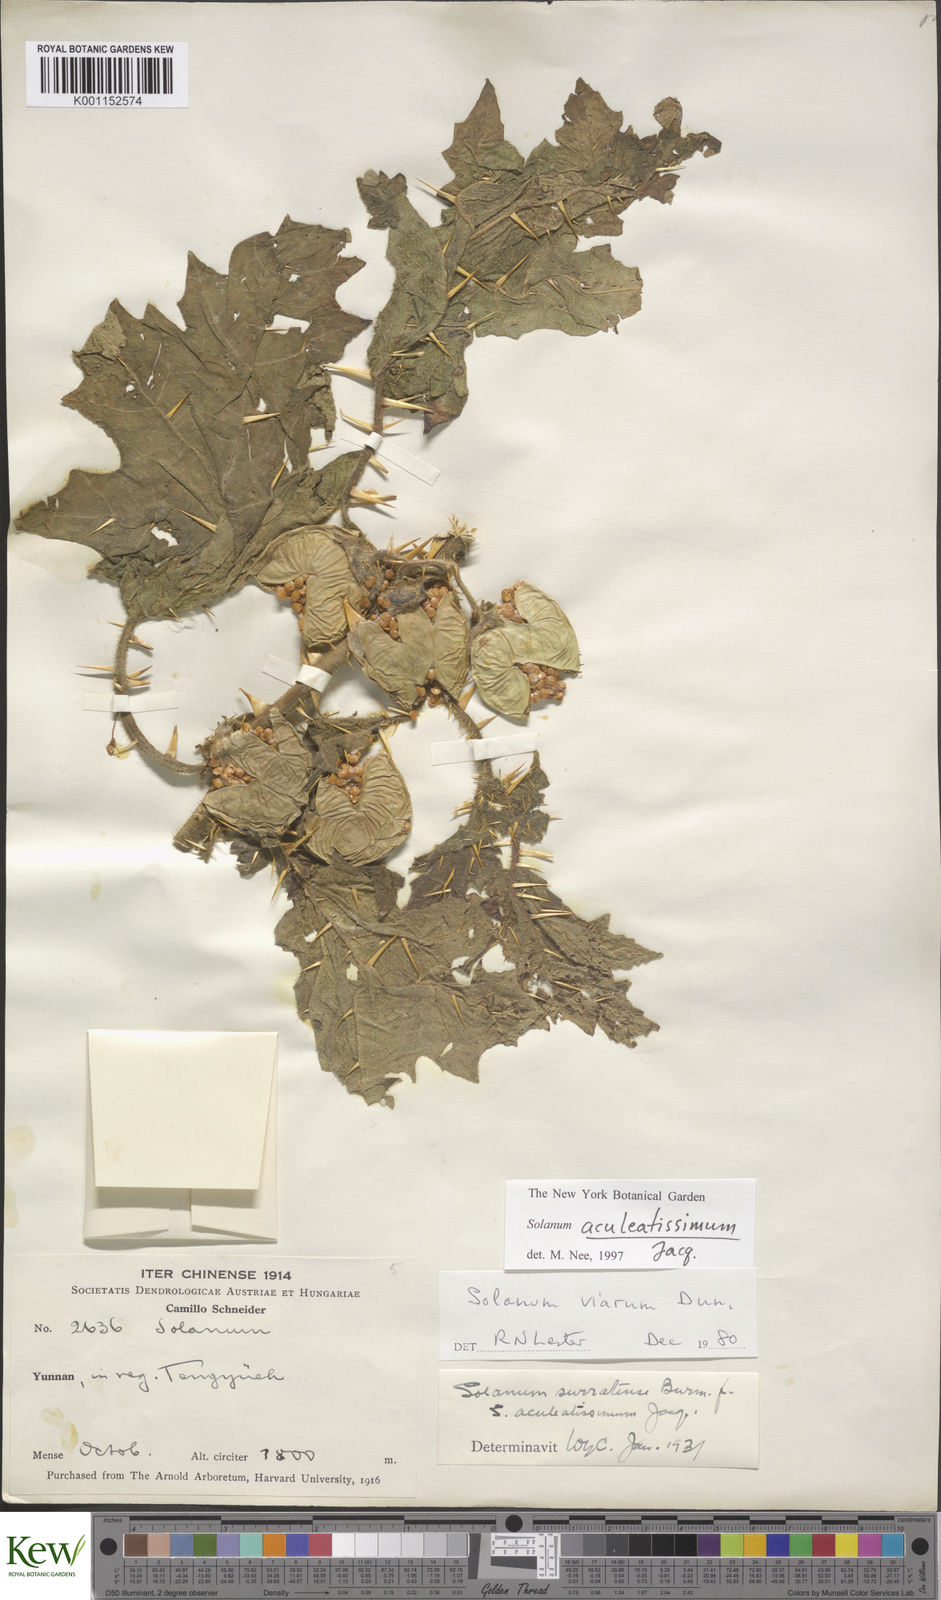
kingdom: Plantae
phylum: Tracheophyta
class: Magnoliopsida
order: Solanales
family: Solanaceae
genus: Solanum
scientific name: Solanum aculeatissimum
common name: Dutch eggplant
